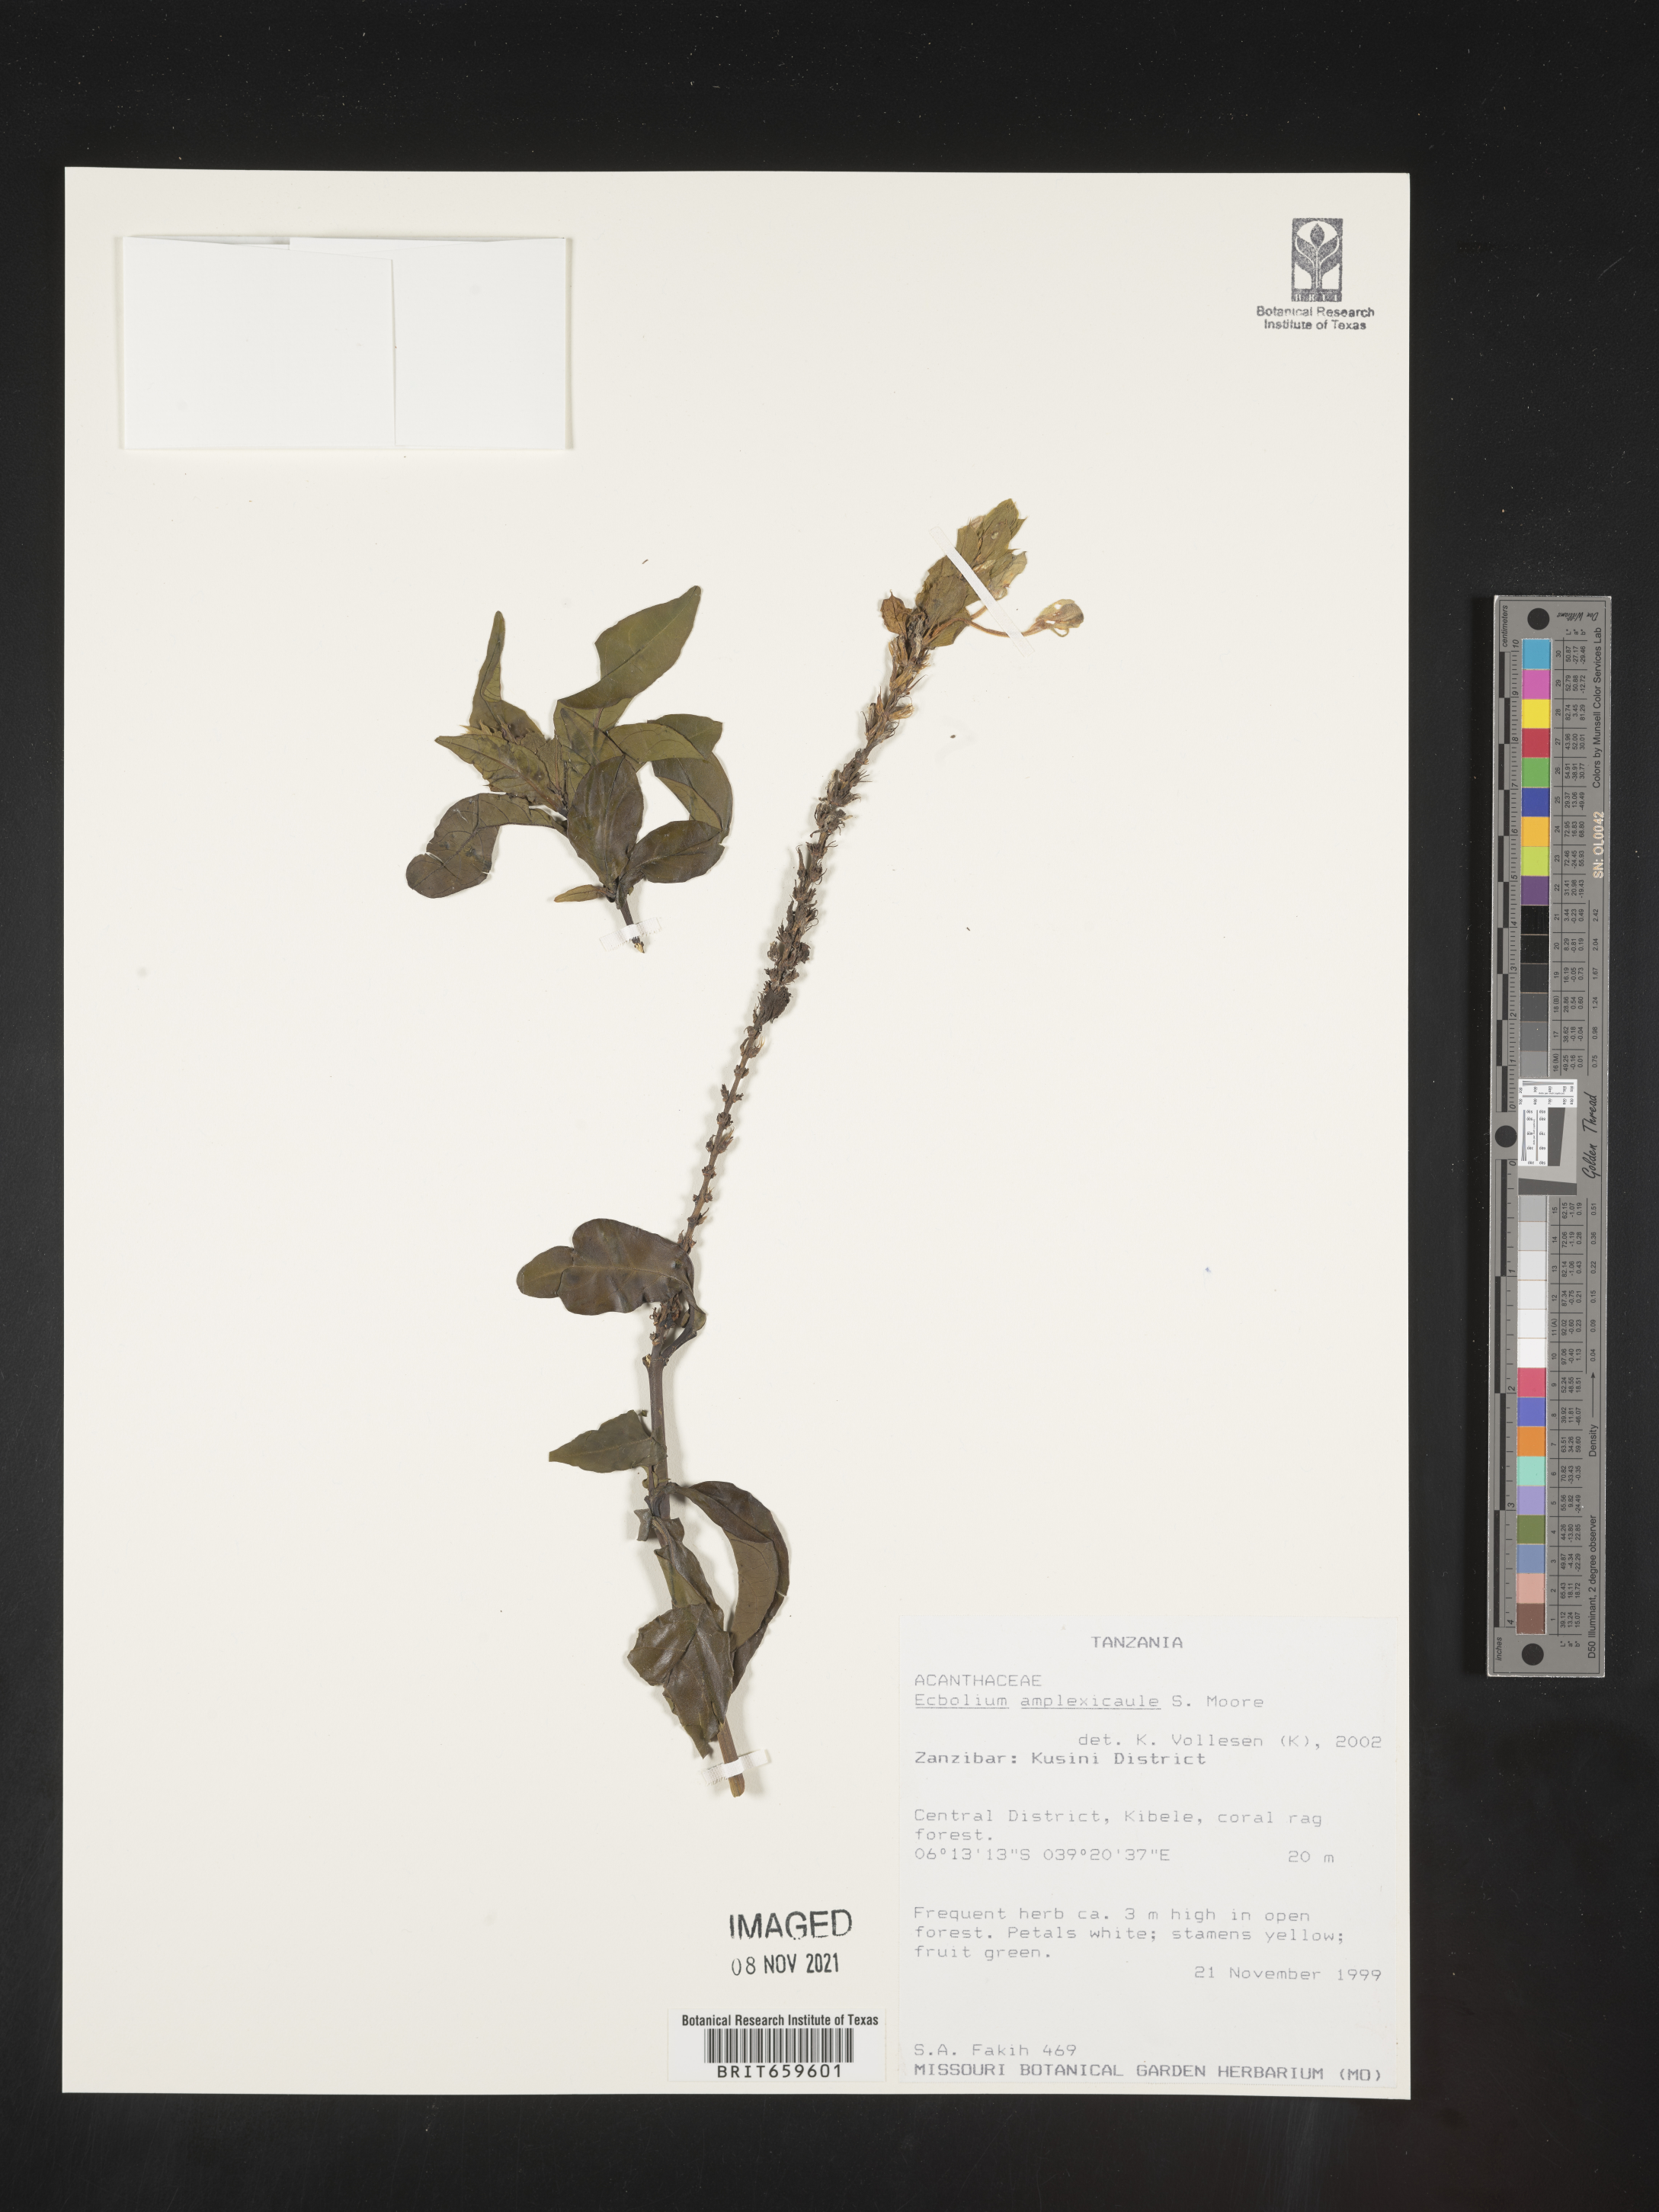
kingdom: Plantae
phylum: Tracheophyta
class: Magnoliopsida
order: Lamiales
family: Acanthaceae
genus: Ecbolium
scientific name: Ecbolium amplexicaule
